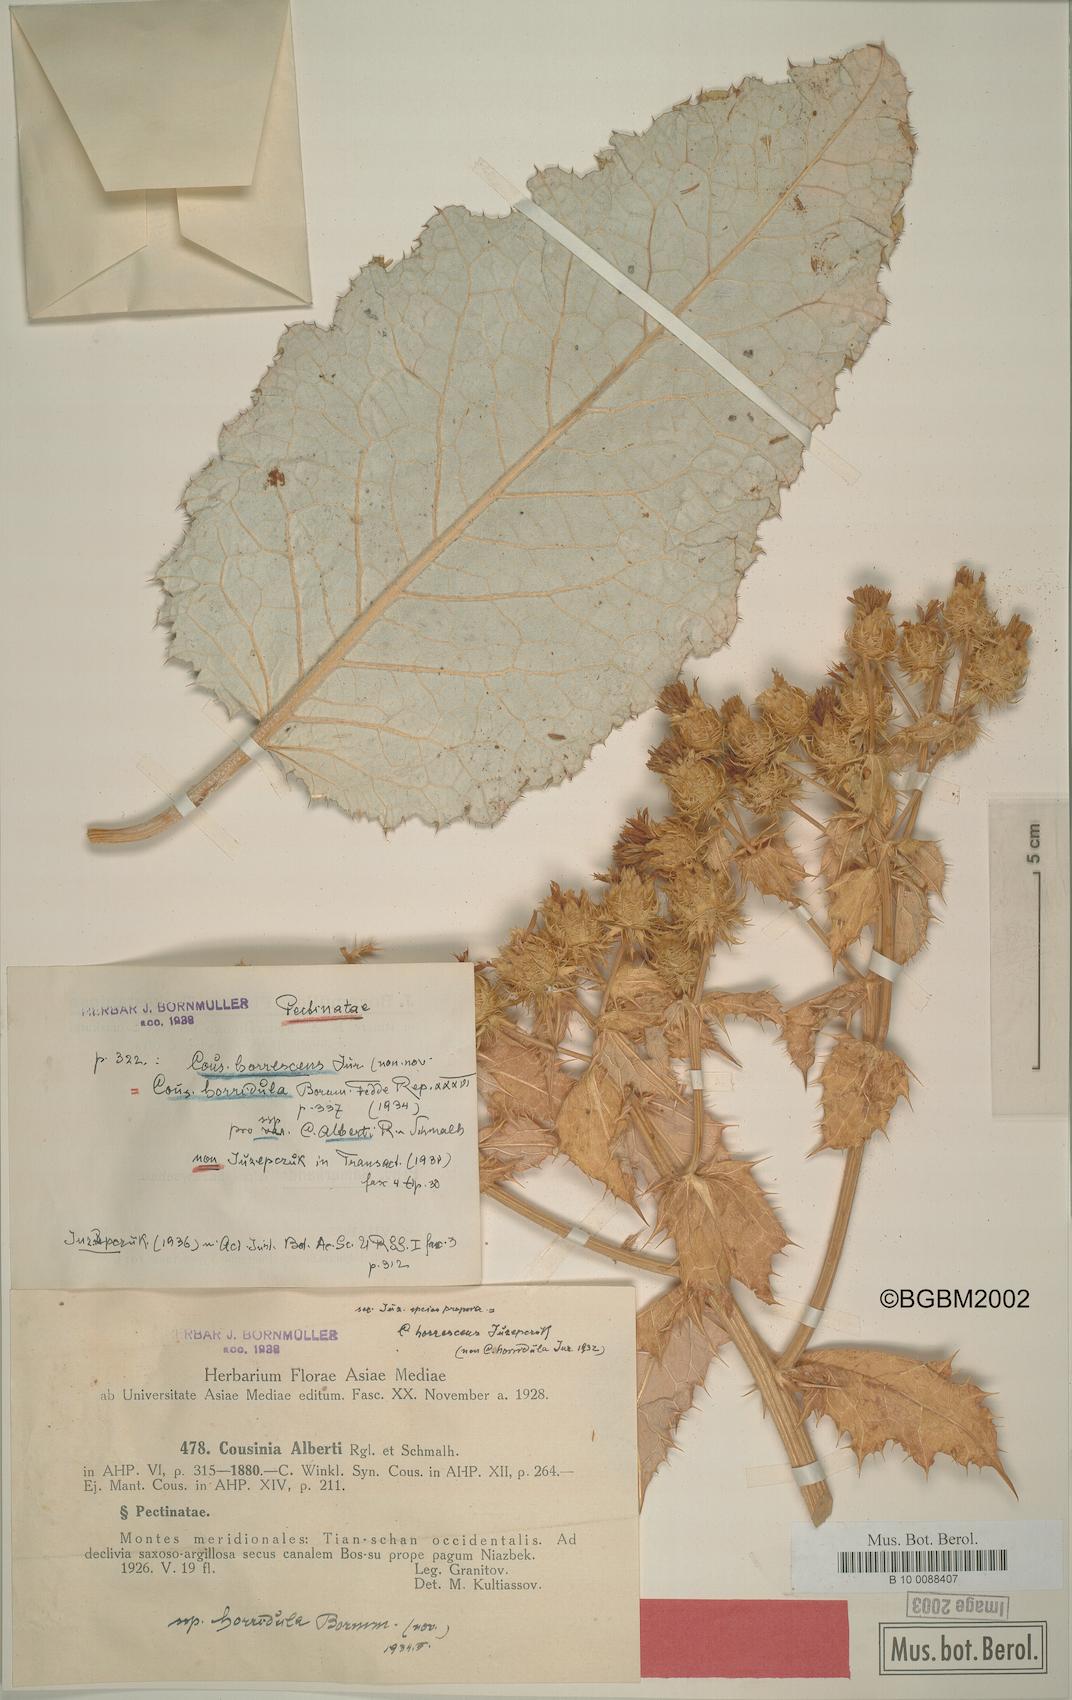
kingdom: Plantae
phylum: Tracheophyta
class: Magnoliopsida
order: Asterales
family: Asteraceae
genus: Arctium
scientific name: Arctium horrescens
